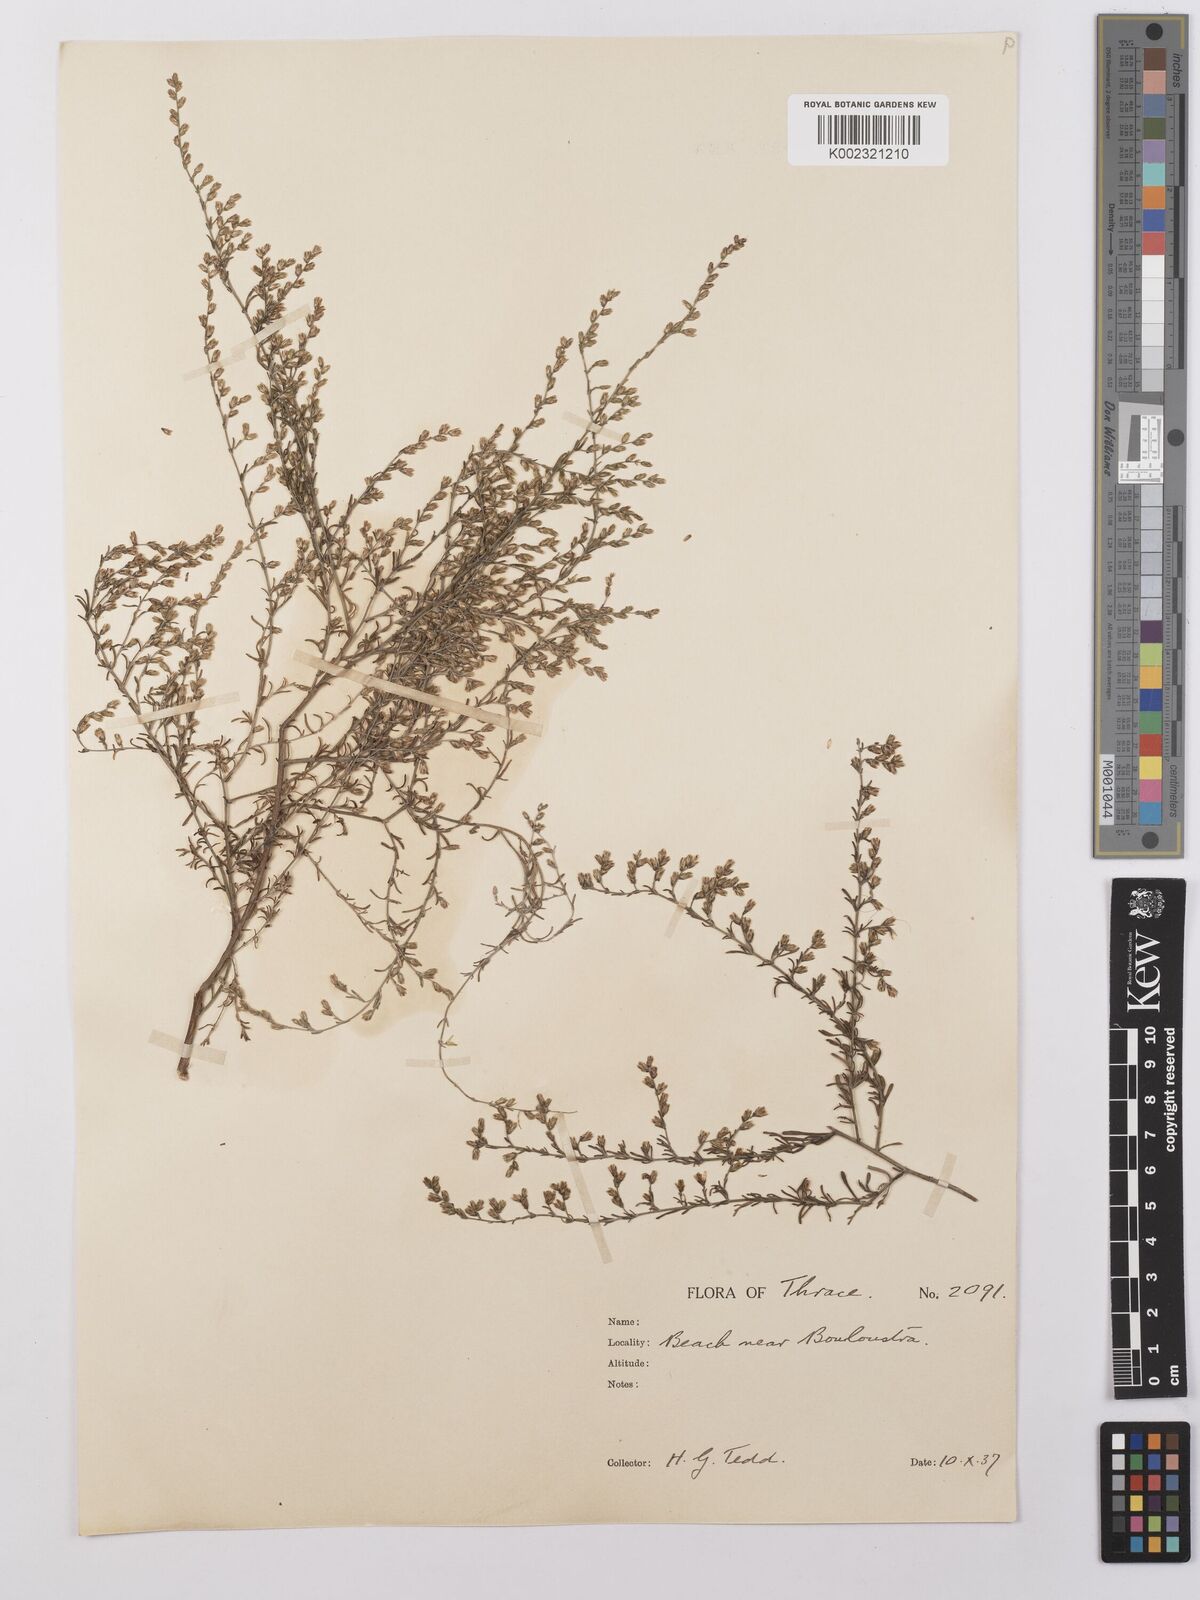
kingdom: Plantae
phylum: Tracheophyta
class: Magnoliopsida
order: Asterales
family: Asteraceae
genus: Artemisia
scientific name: Artemisia maritima
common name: Wormseed
